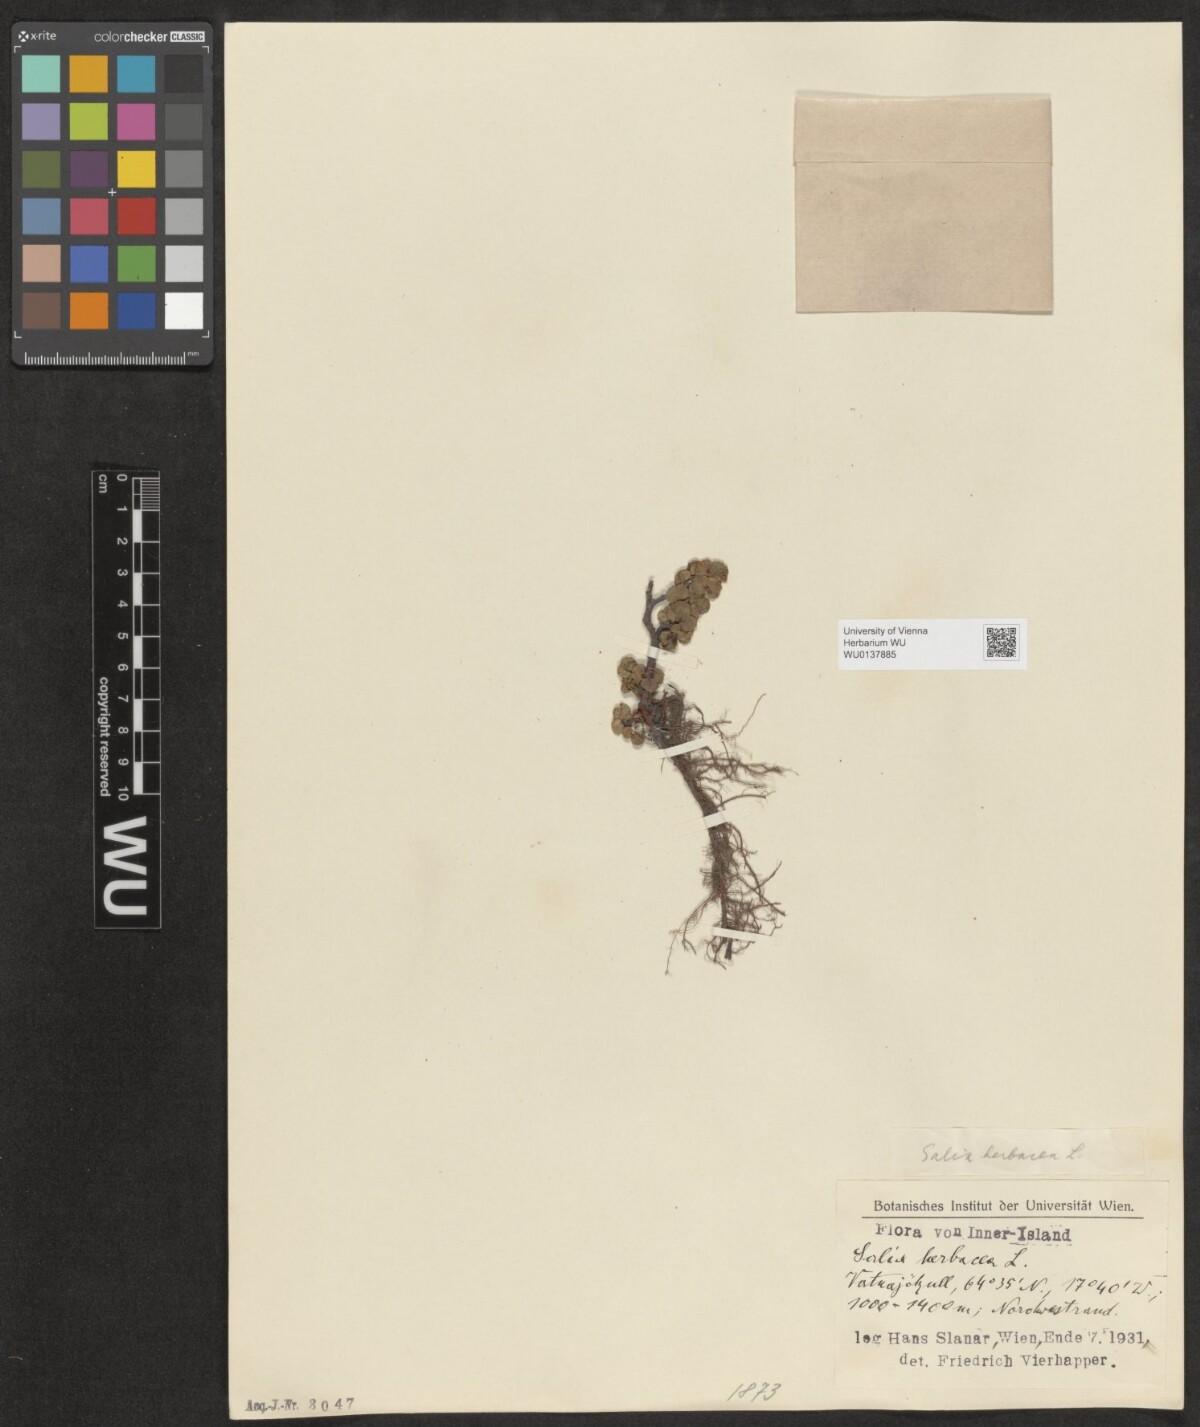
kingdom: Plantae
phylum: Tracheophyta
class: Magnoliopsida
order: Malpighiales
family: Salicaceae
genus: Salix
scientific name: Salix herbacea
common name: Dwarf willow
